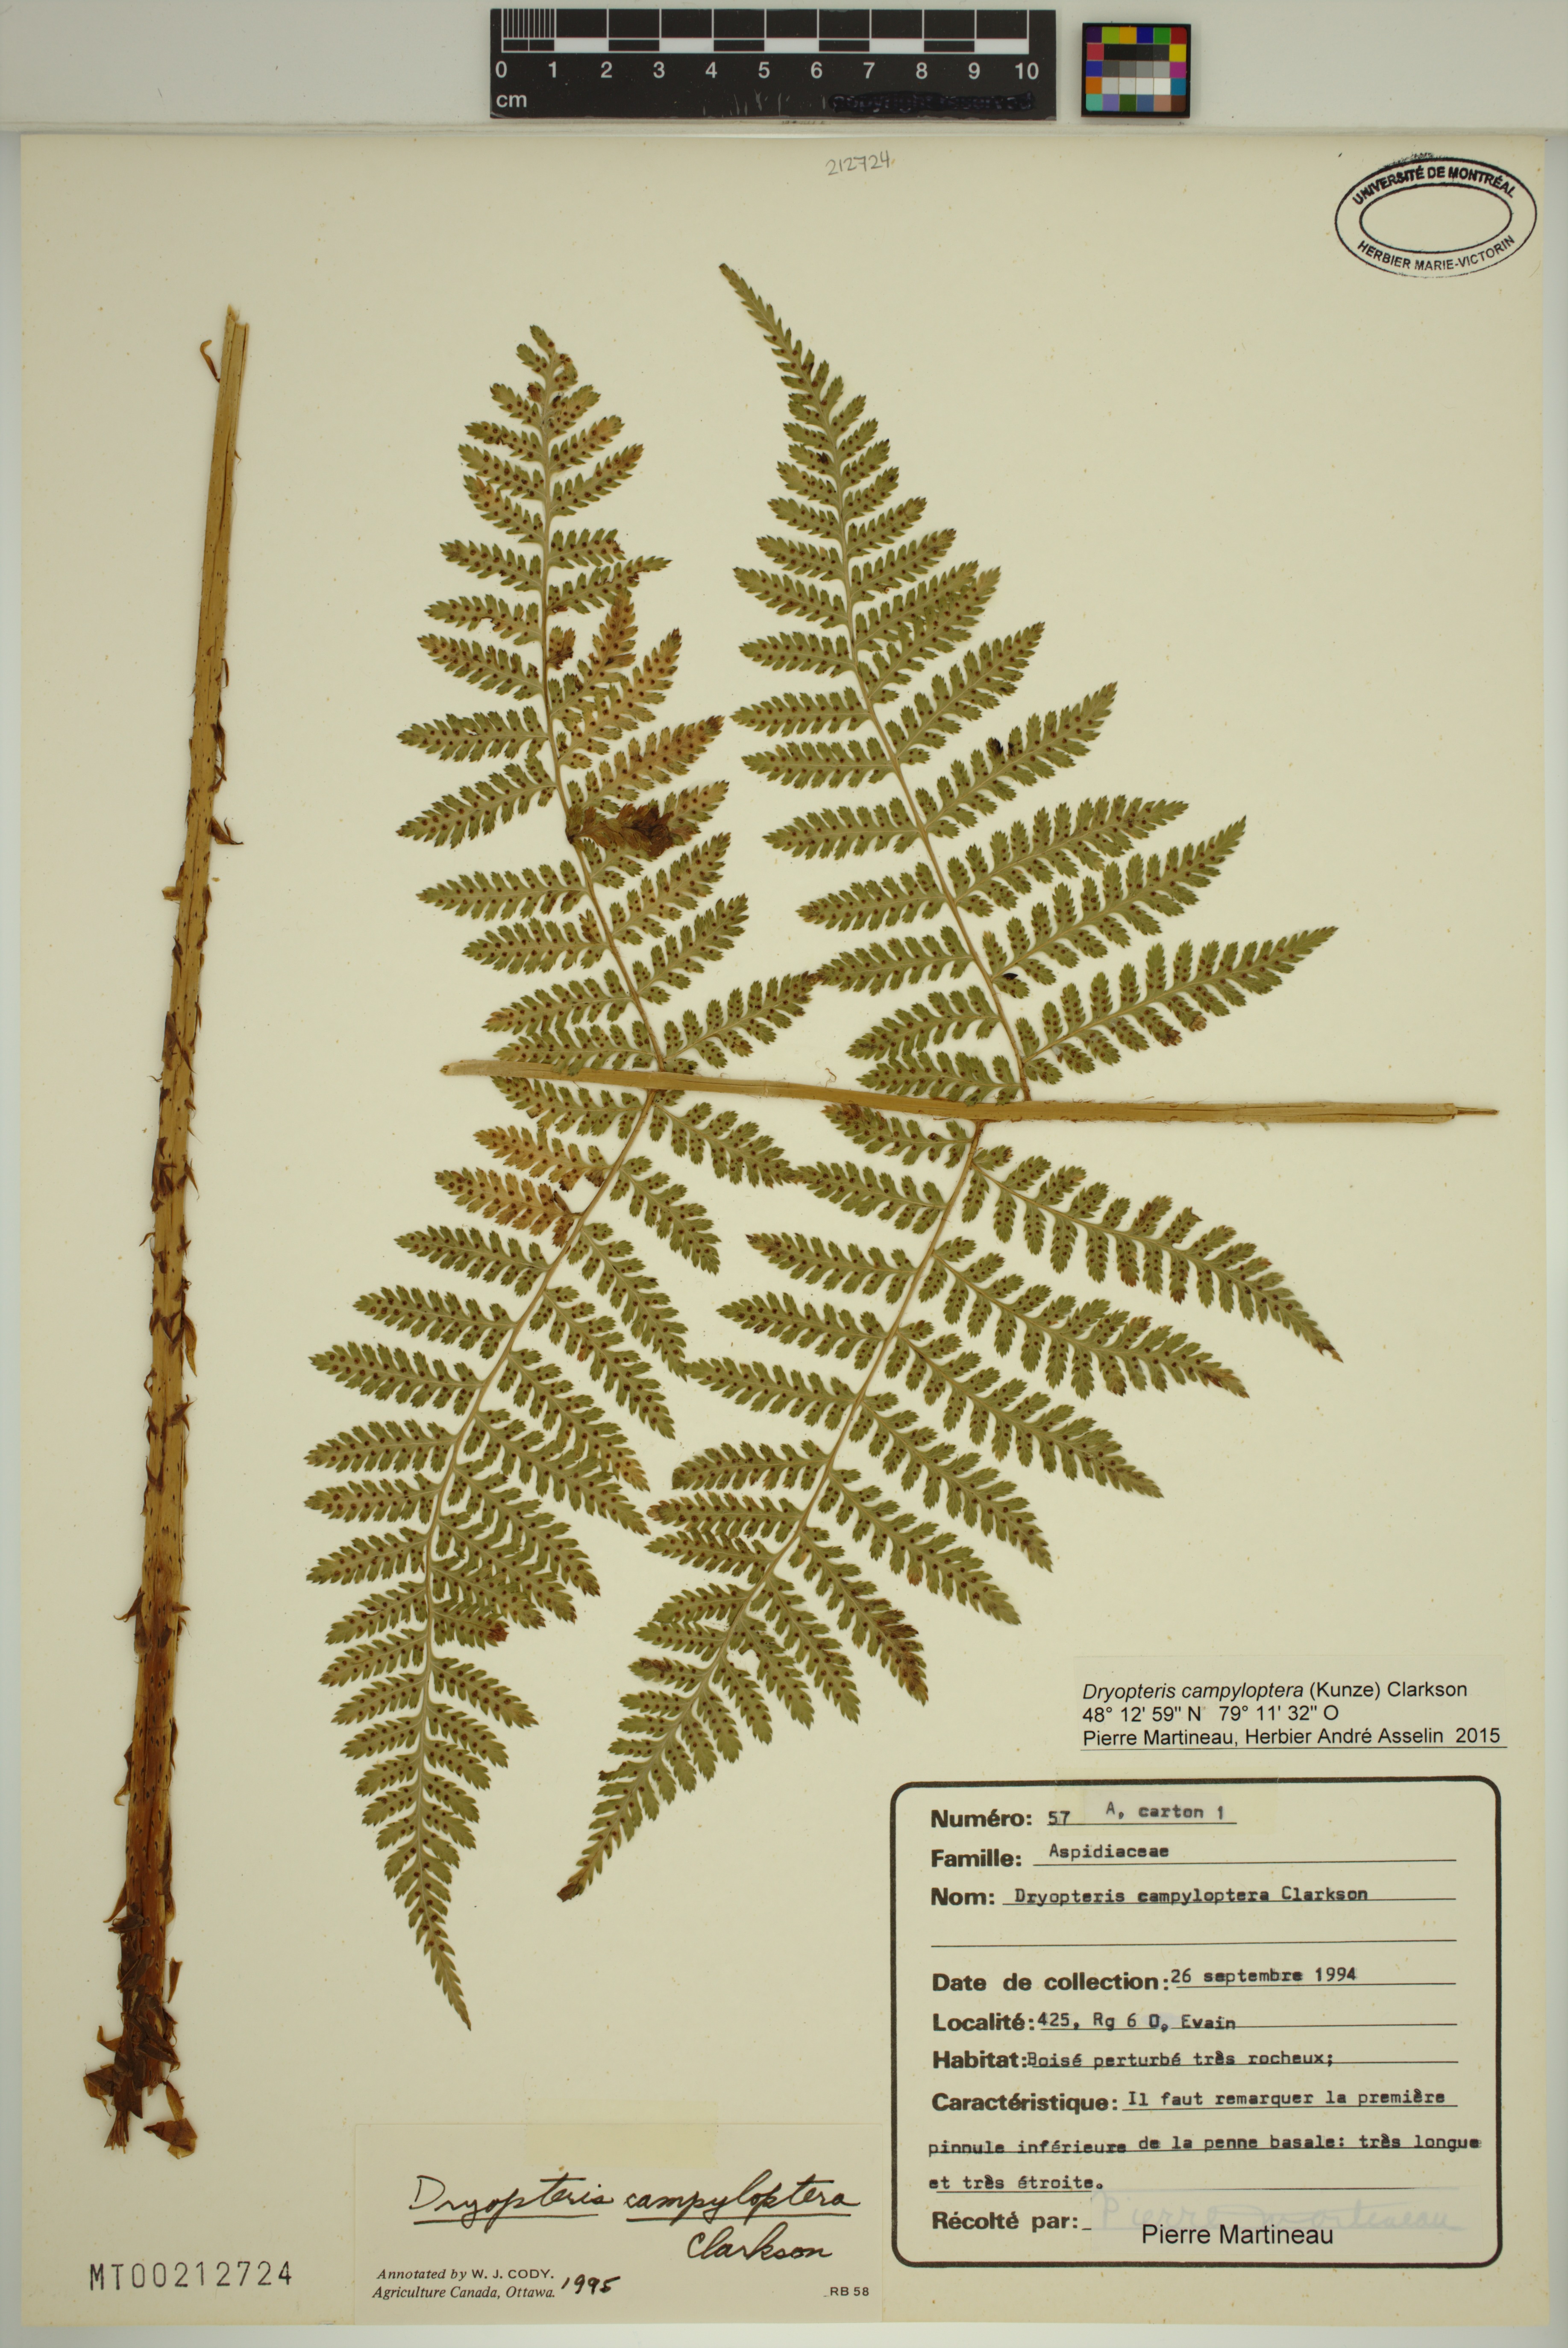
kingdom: Plantae
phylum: Tracheophyta
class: Polypodiopsida
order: Polypodiales
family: Dryopteridaceae
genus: Dryopteris
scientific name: Dryopteris campyloptera
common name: Mountain wood fern
